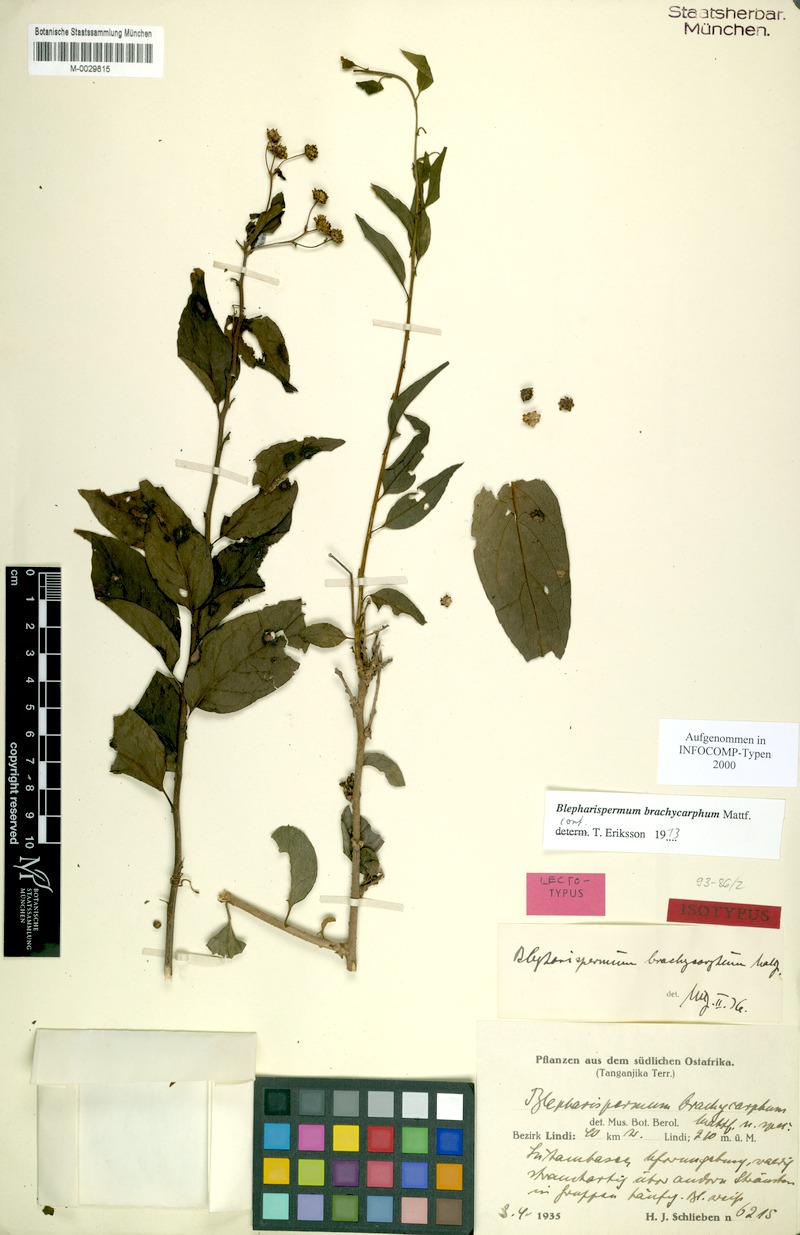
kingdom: Plantae
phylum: Tracheophyta
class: Magnoliopsida
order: Asterales
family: Asteraceae
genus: Blepharispermum
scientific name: Blepharispermum brachycarphum
